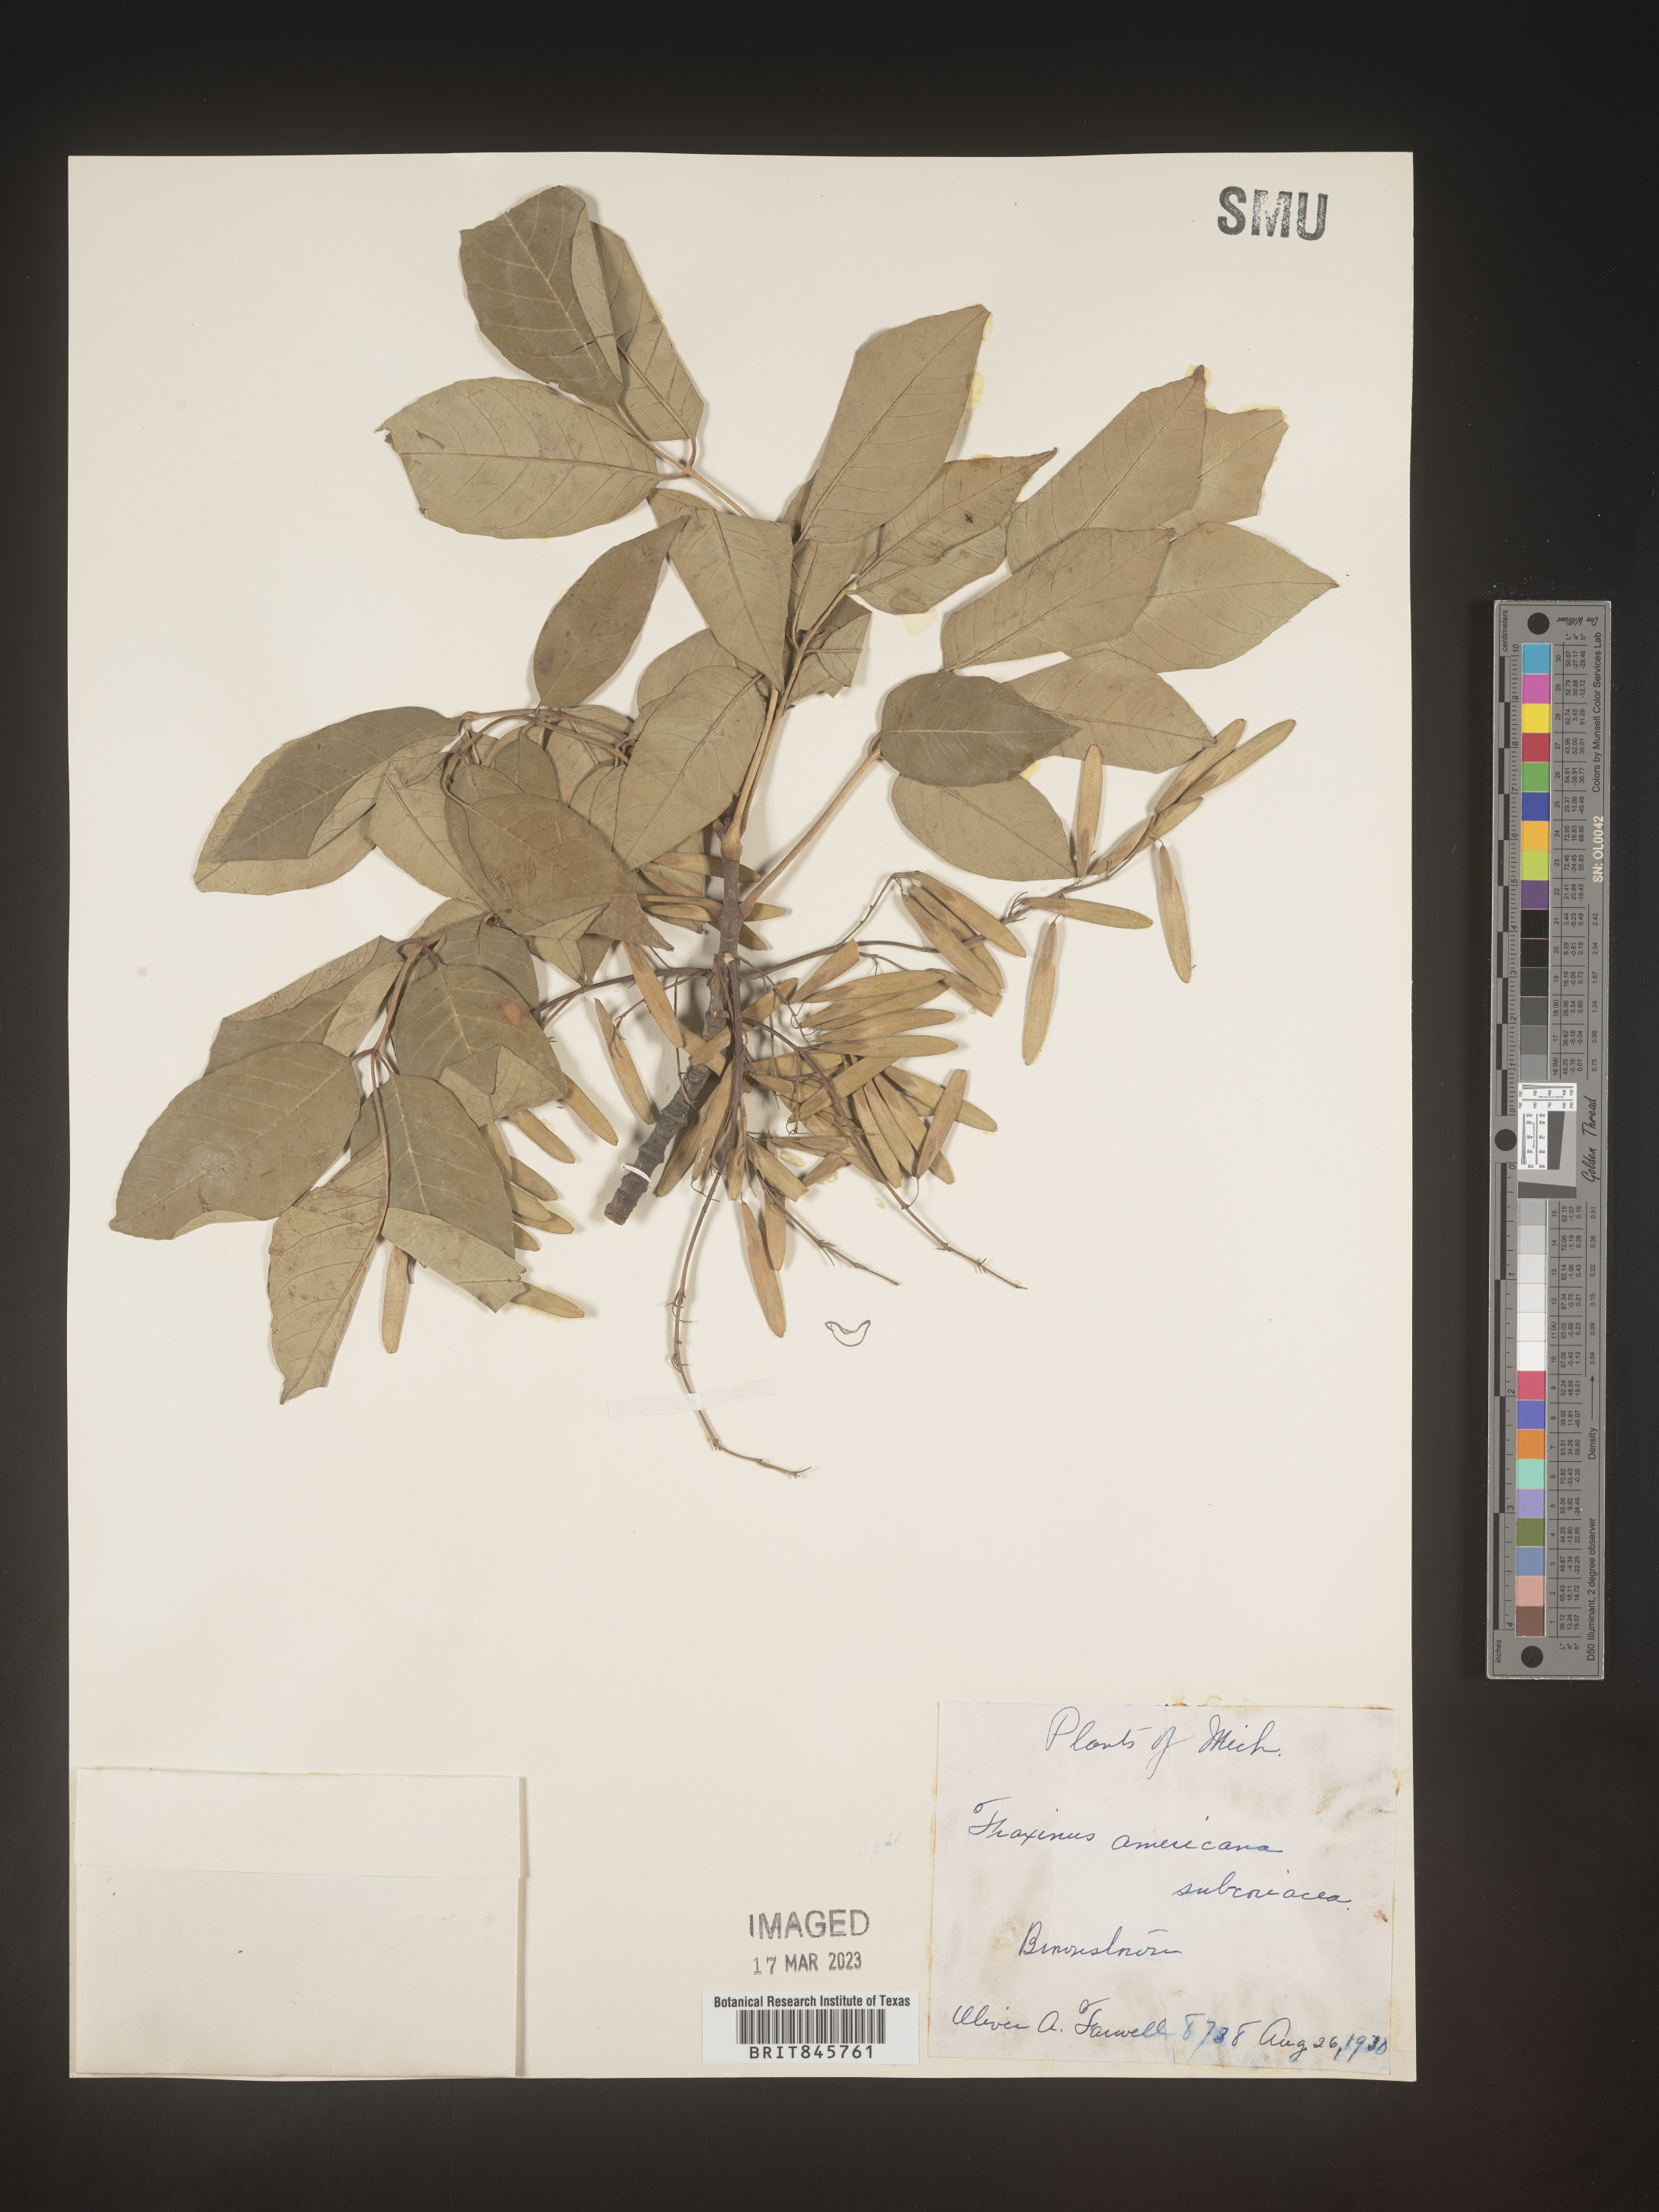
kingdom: Plantae
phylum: Tracheophyta
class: Magnoliopsida
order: Lamiales
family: Oleaceae
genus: Fraxinus
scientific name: Fraxinus americana
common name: White ash
